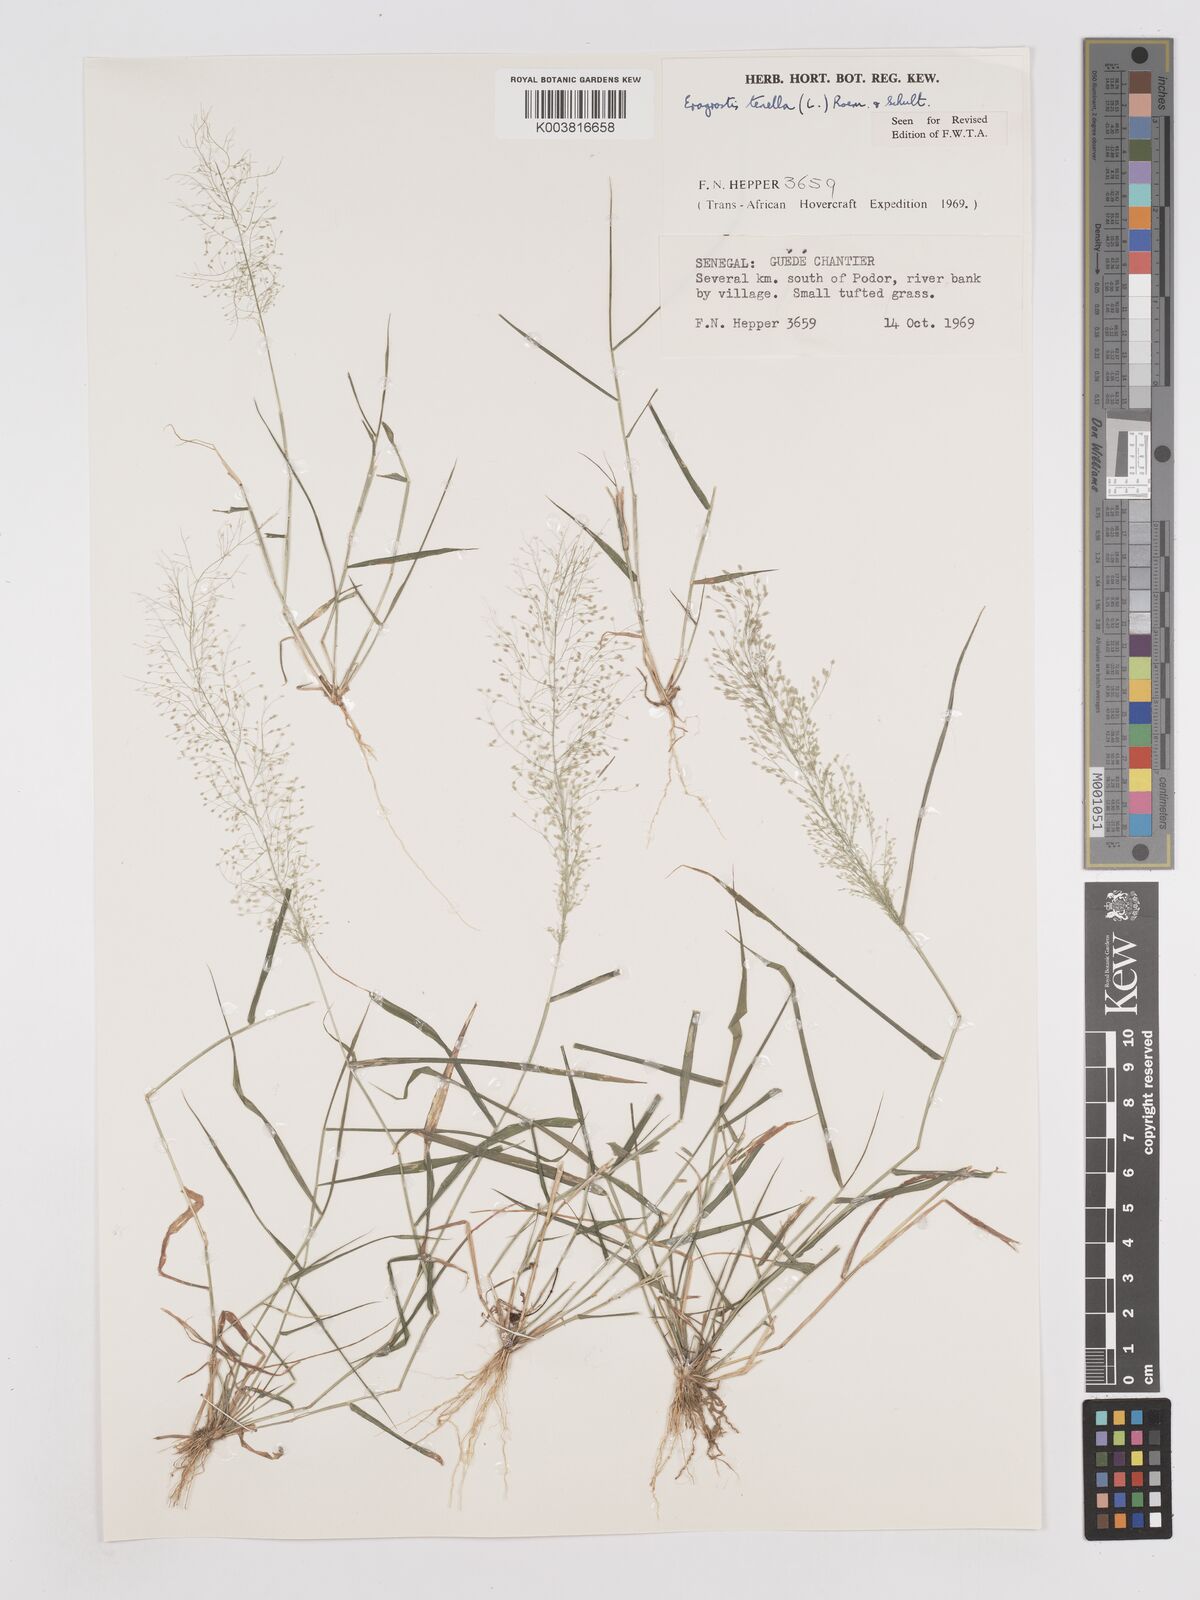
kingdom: Plantae
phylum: Tracheophyta
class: Liliopsida
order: Poales
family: Poaceae
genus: Eragrostis
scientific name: Eragrostis tenella
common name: Japanese lovegrass
